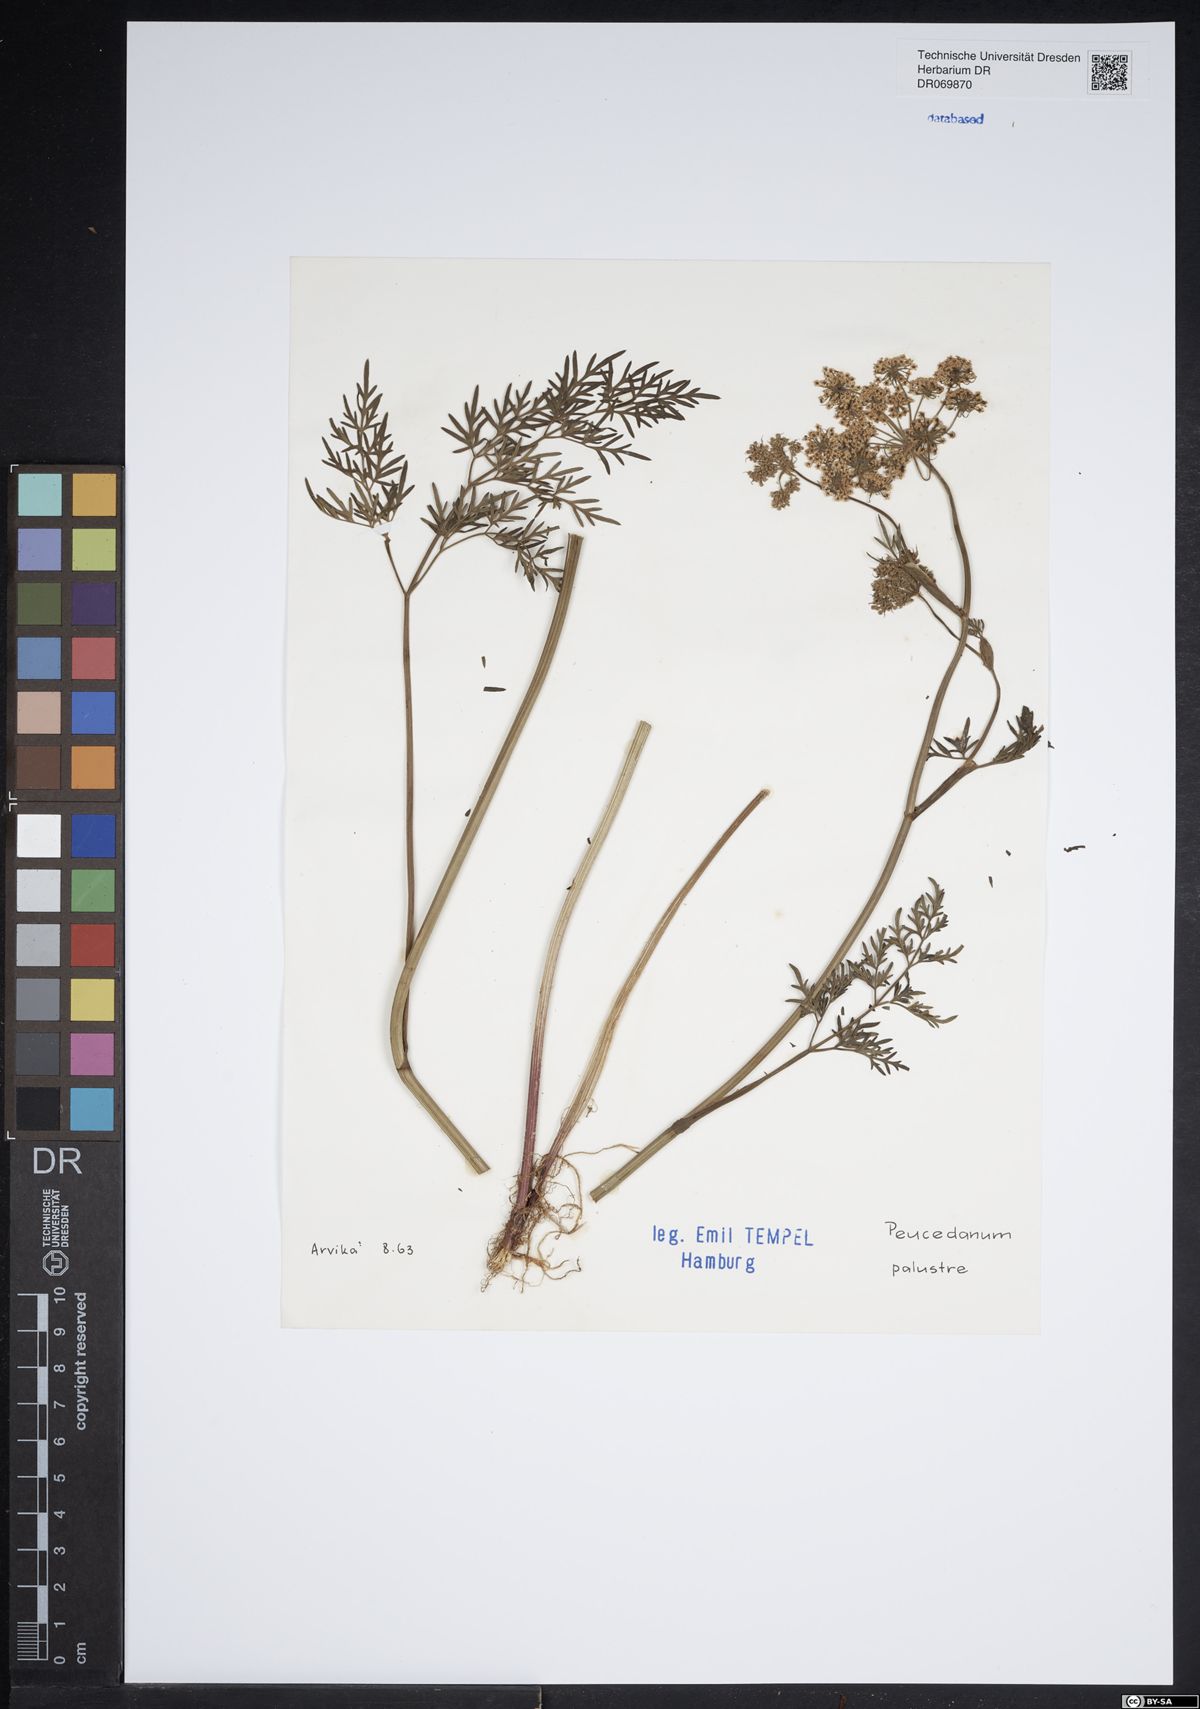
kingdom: Plantae
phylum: Tracheophyta
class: Magnoliopsida
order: Apiales
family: Apiaceae
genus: Thysselinum
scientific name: Thysselinum palustre
